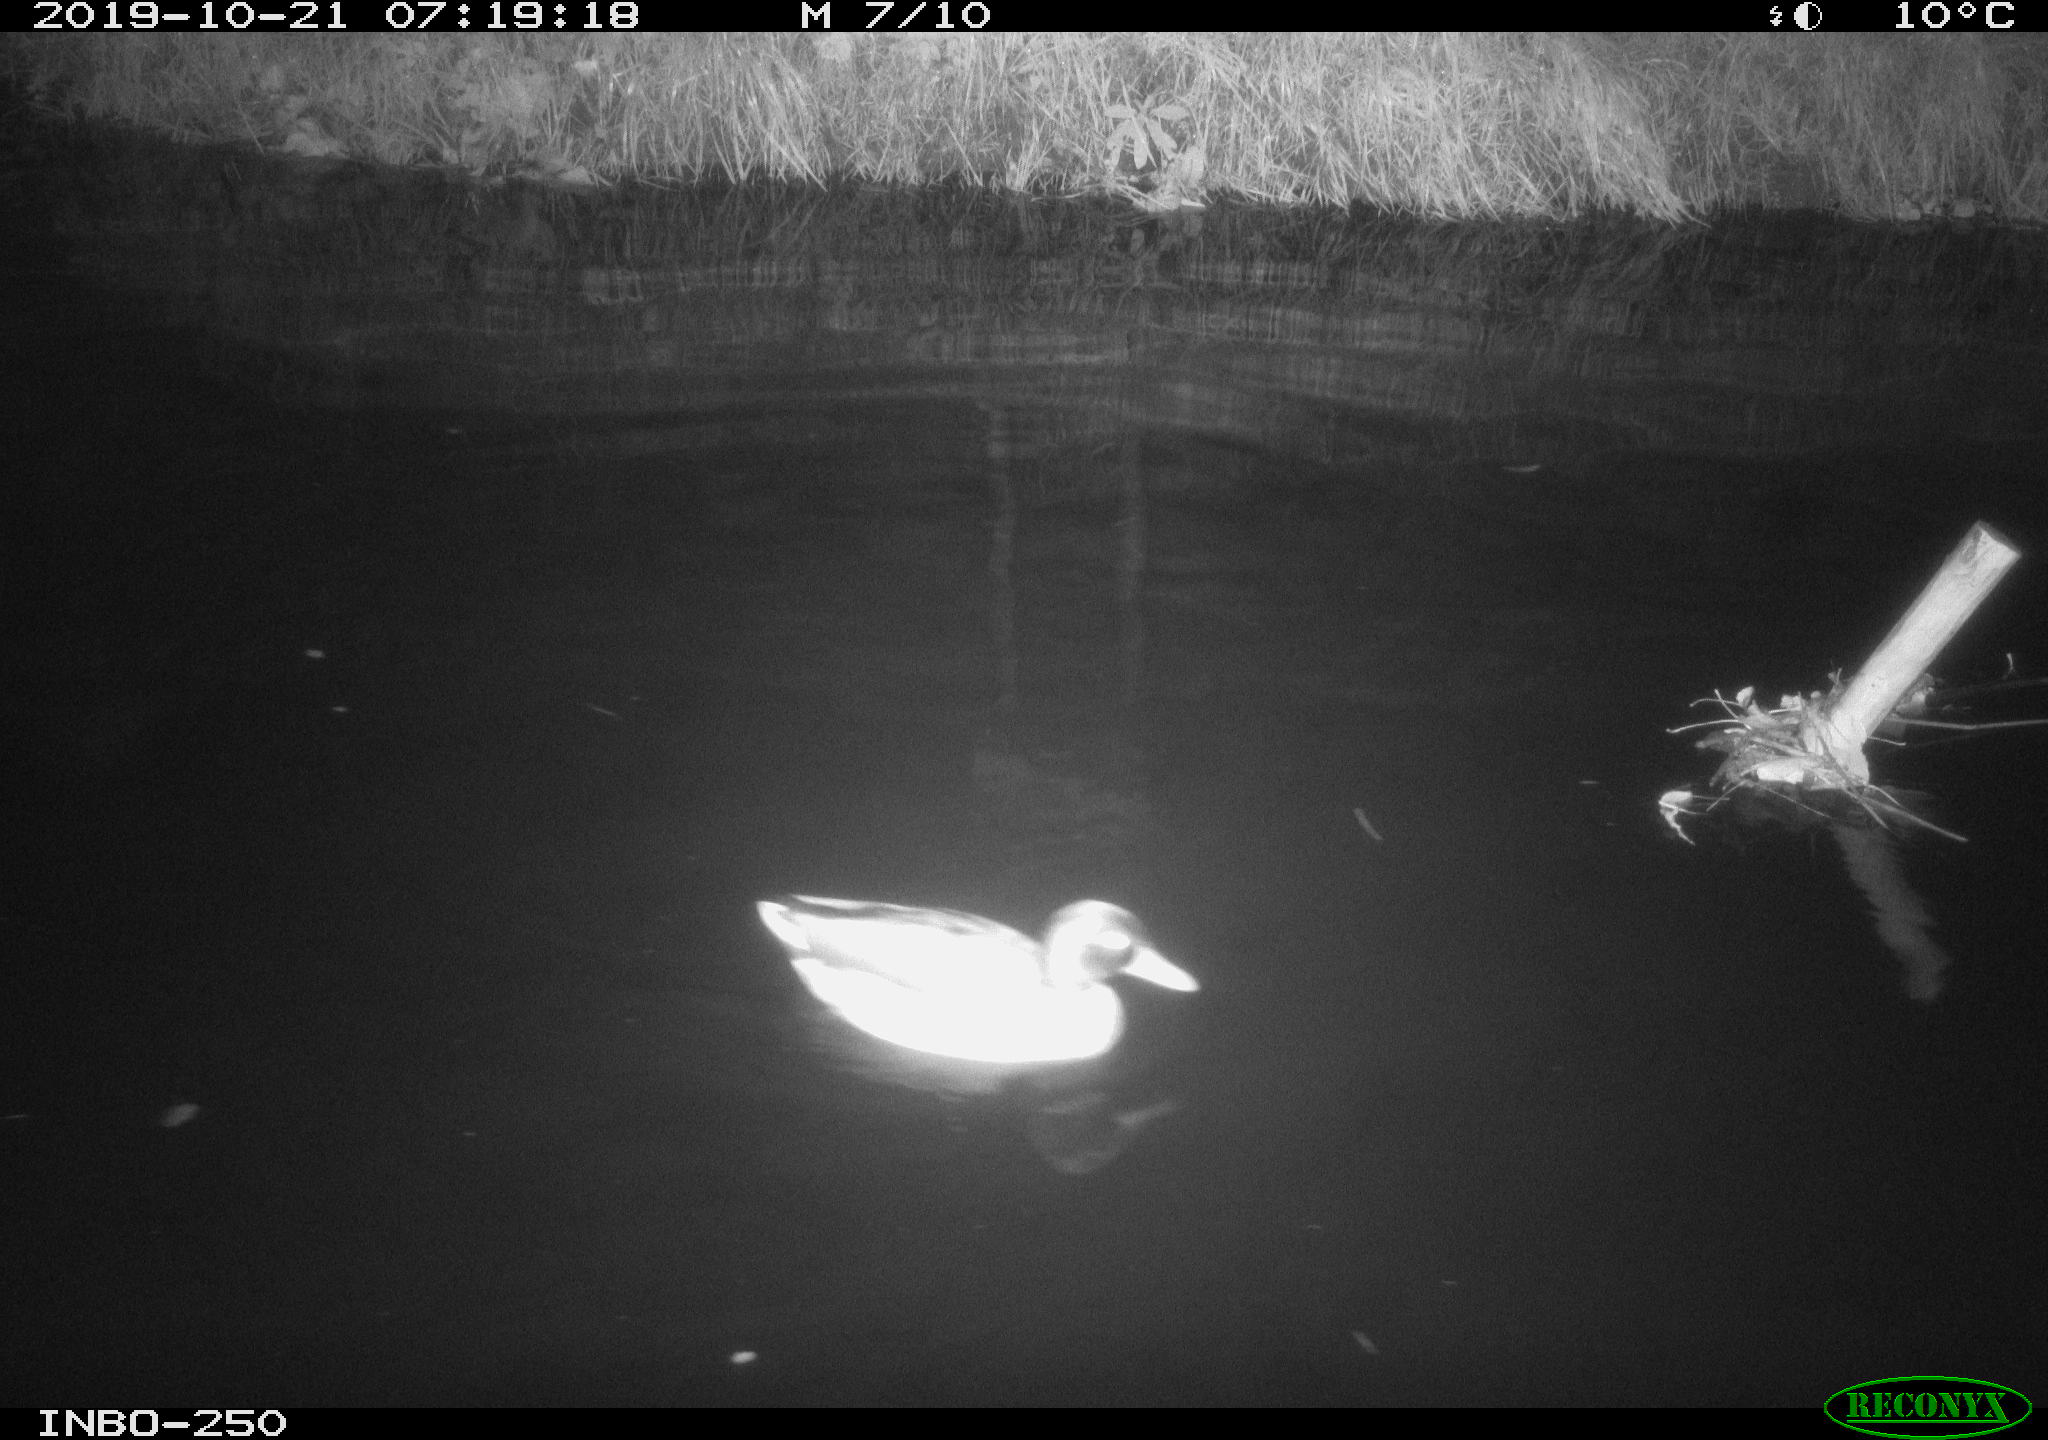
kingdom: Animalia
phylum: Chordata
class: Aves
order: Anseriformes
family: Anatidae
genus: Anas
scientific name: Anas platyrhynchos
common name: Mallard
